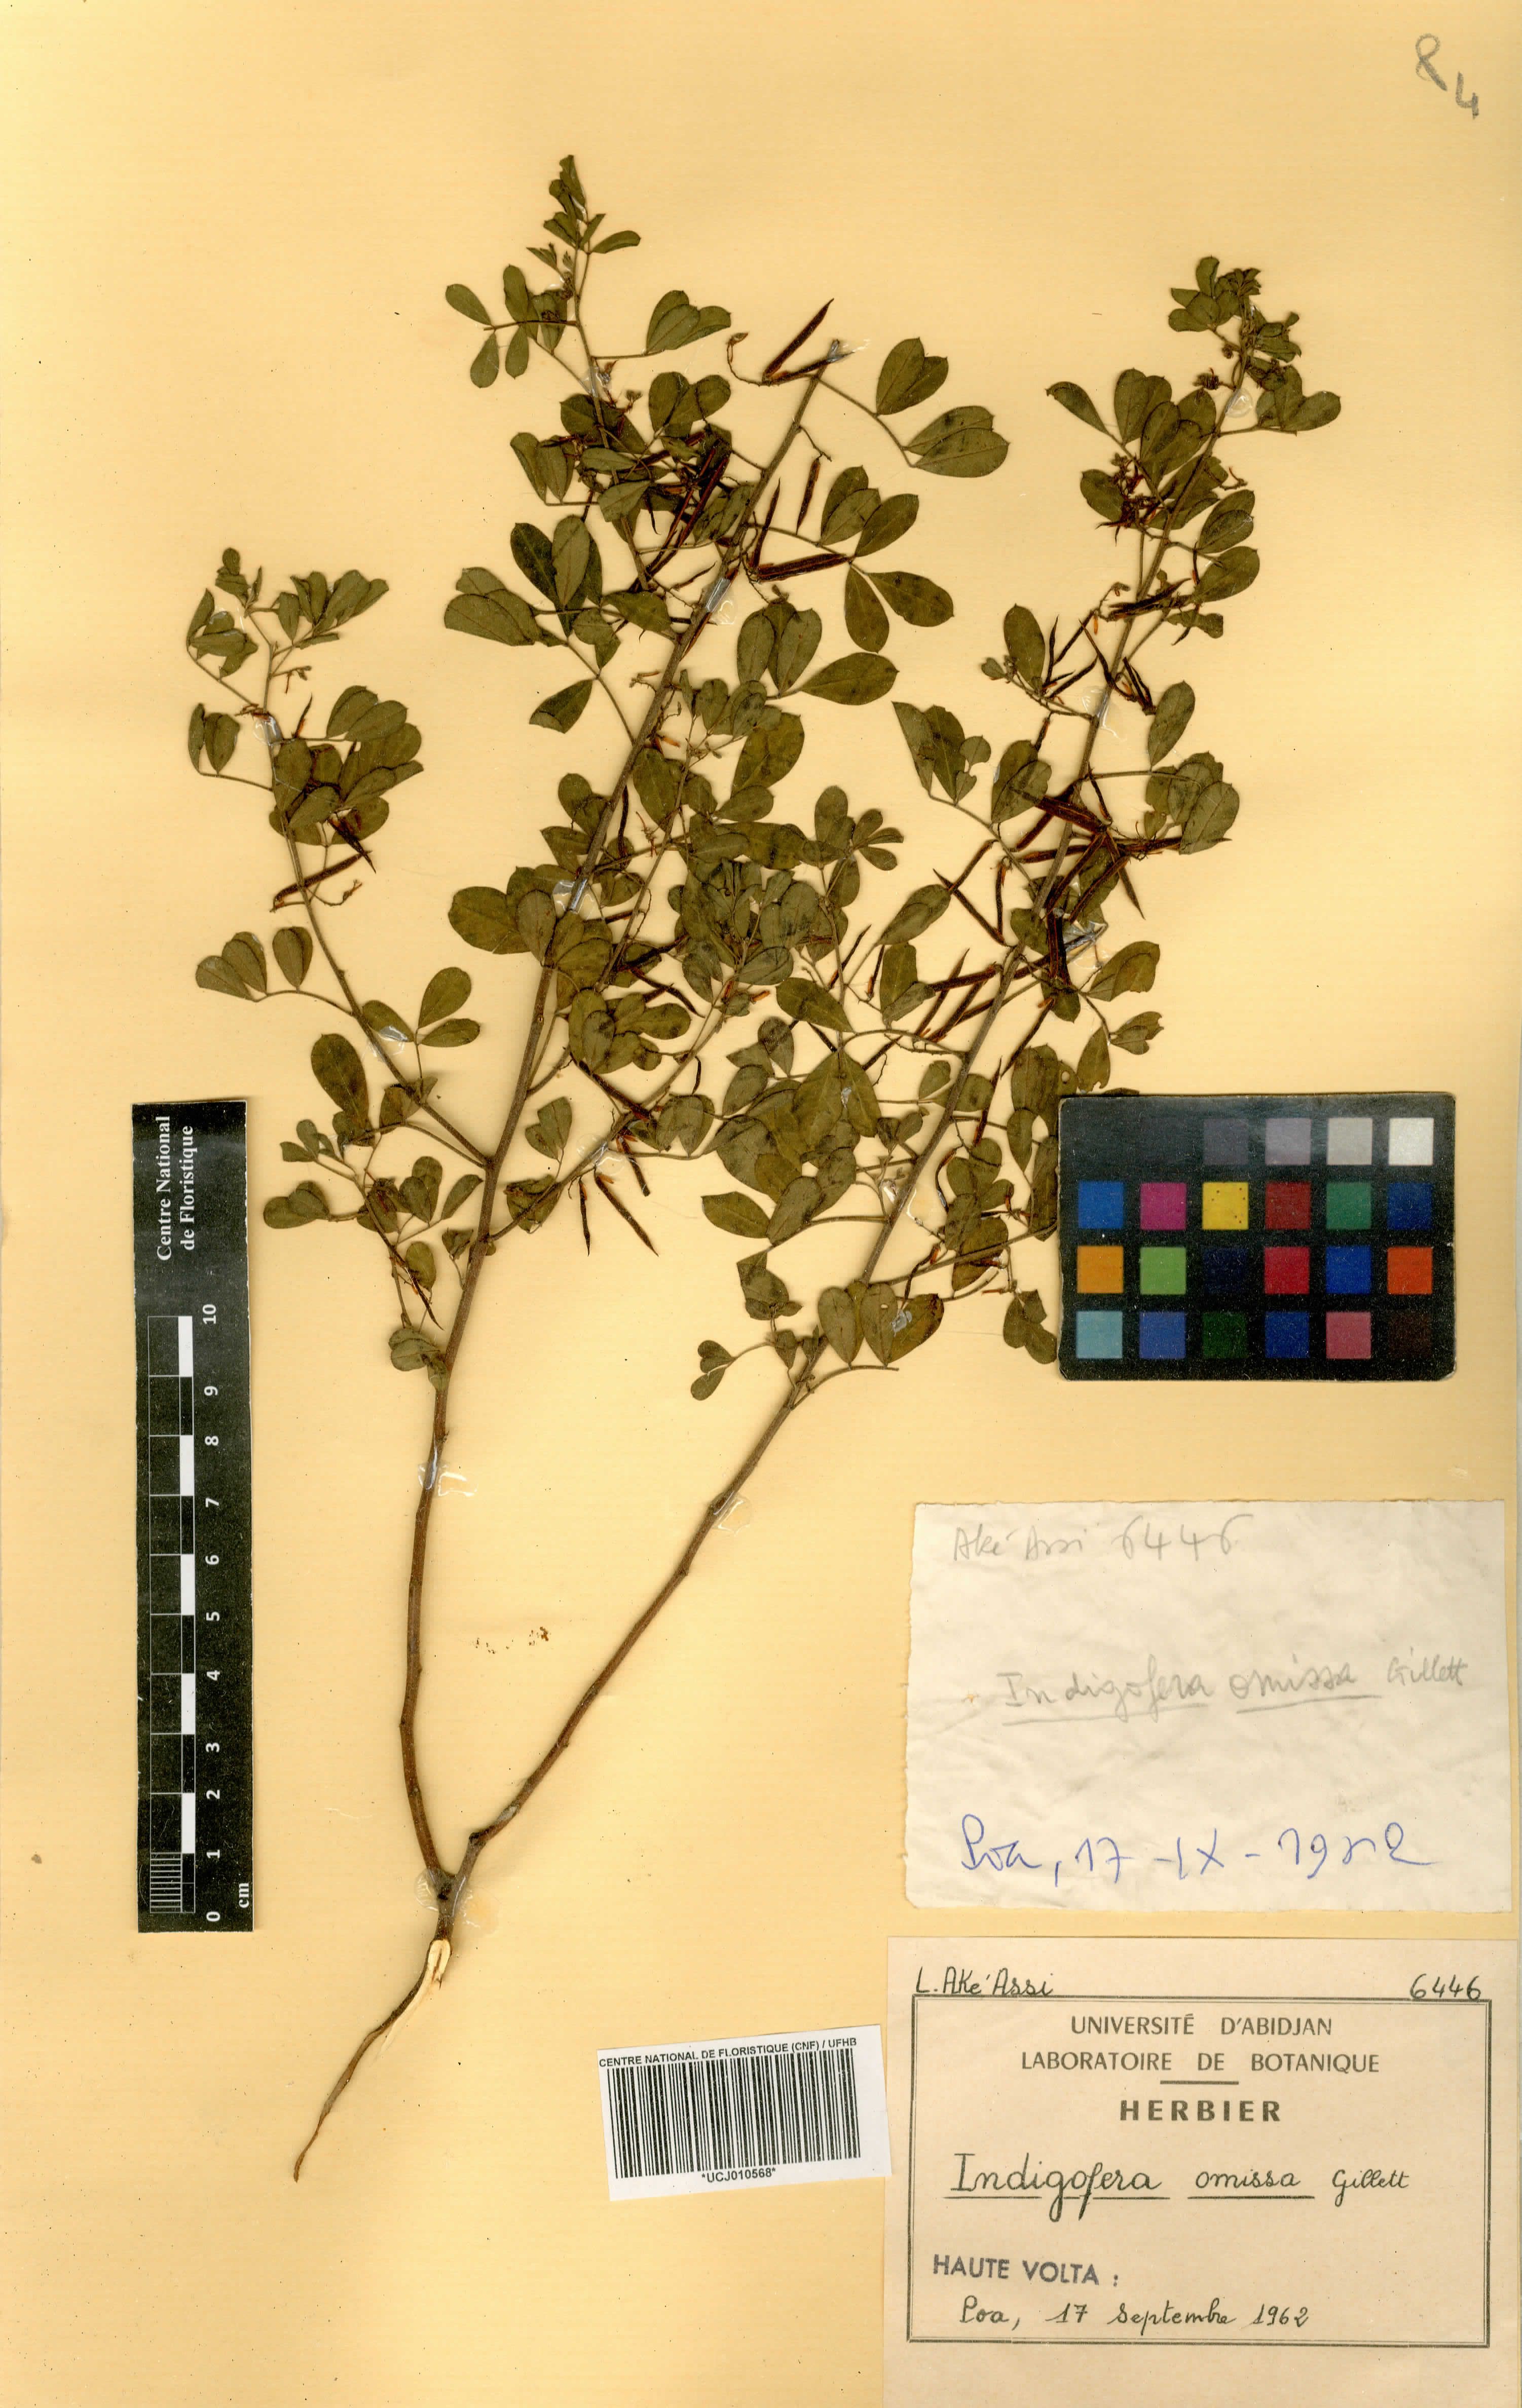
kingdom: Plantae
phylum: Tracheophyta
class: Magnoliopsida
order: Fabales
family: Fabaceae
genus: Indigofera
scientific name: Indigofera omissa
